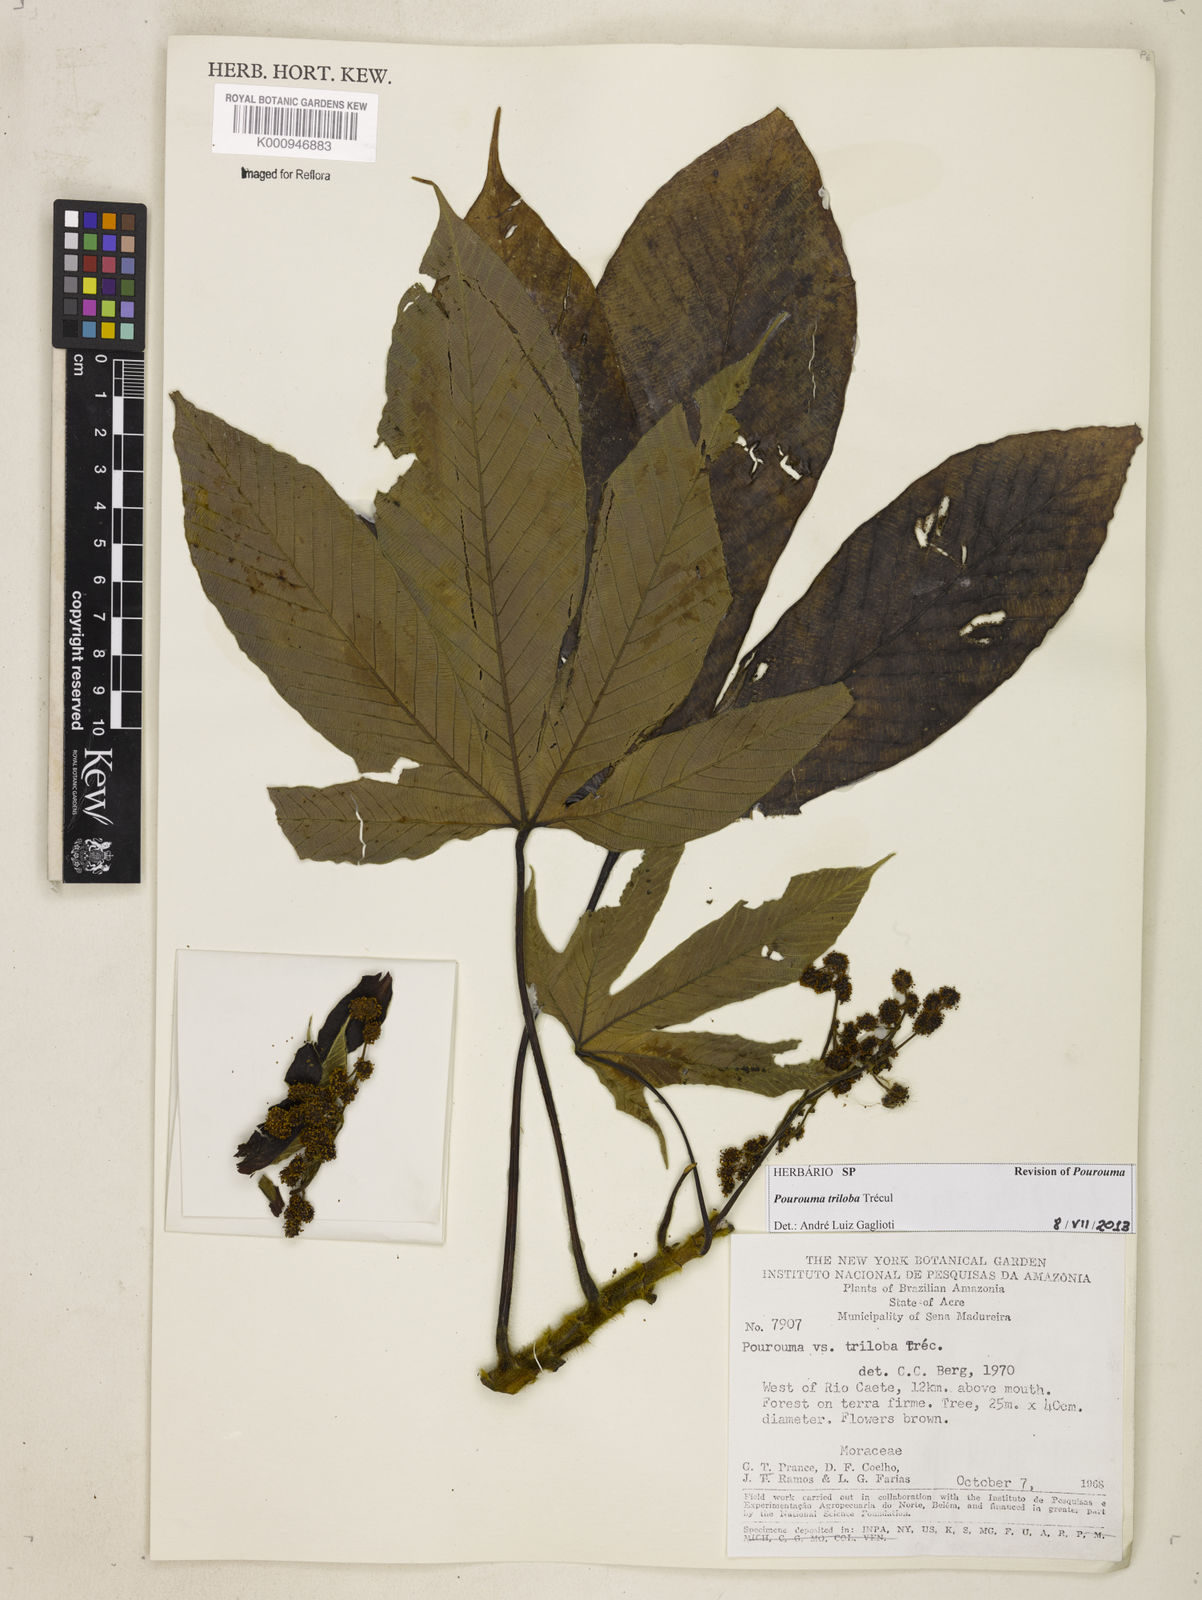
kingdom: Plantae
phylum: Tracheophyta
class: Magnoliopsida
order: Rosales
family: Urticaceae
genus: Pourouma
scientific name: Pourouma
